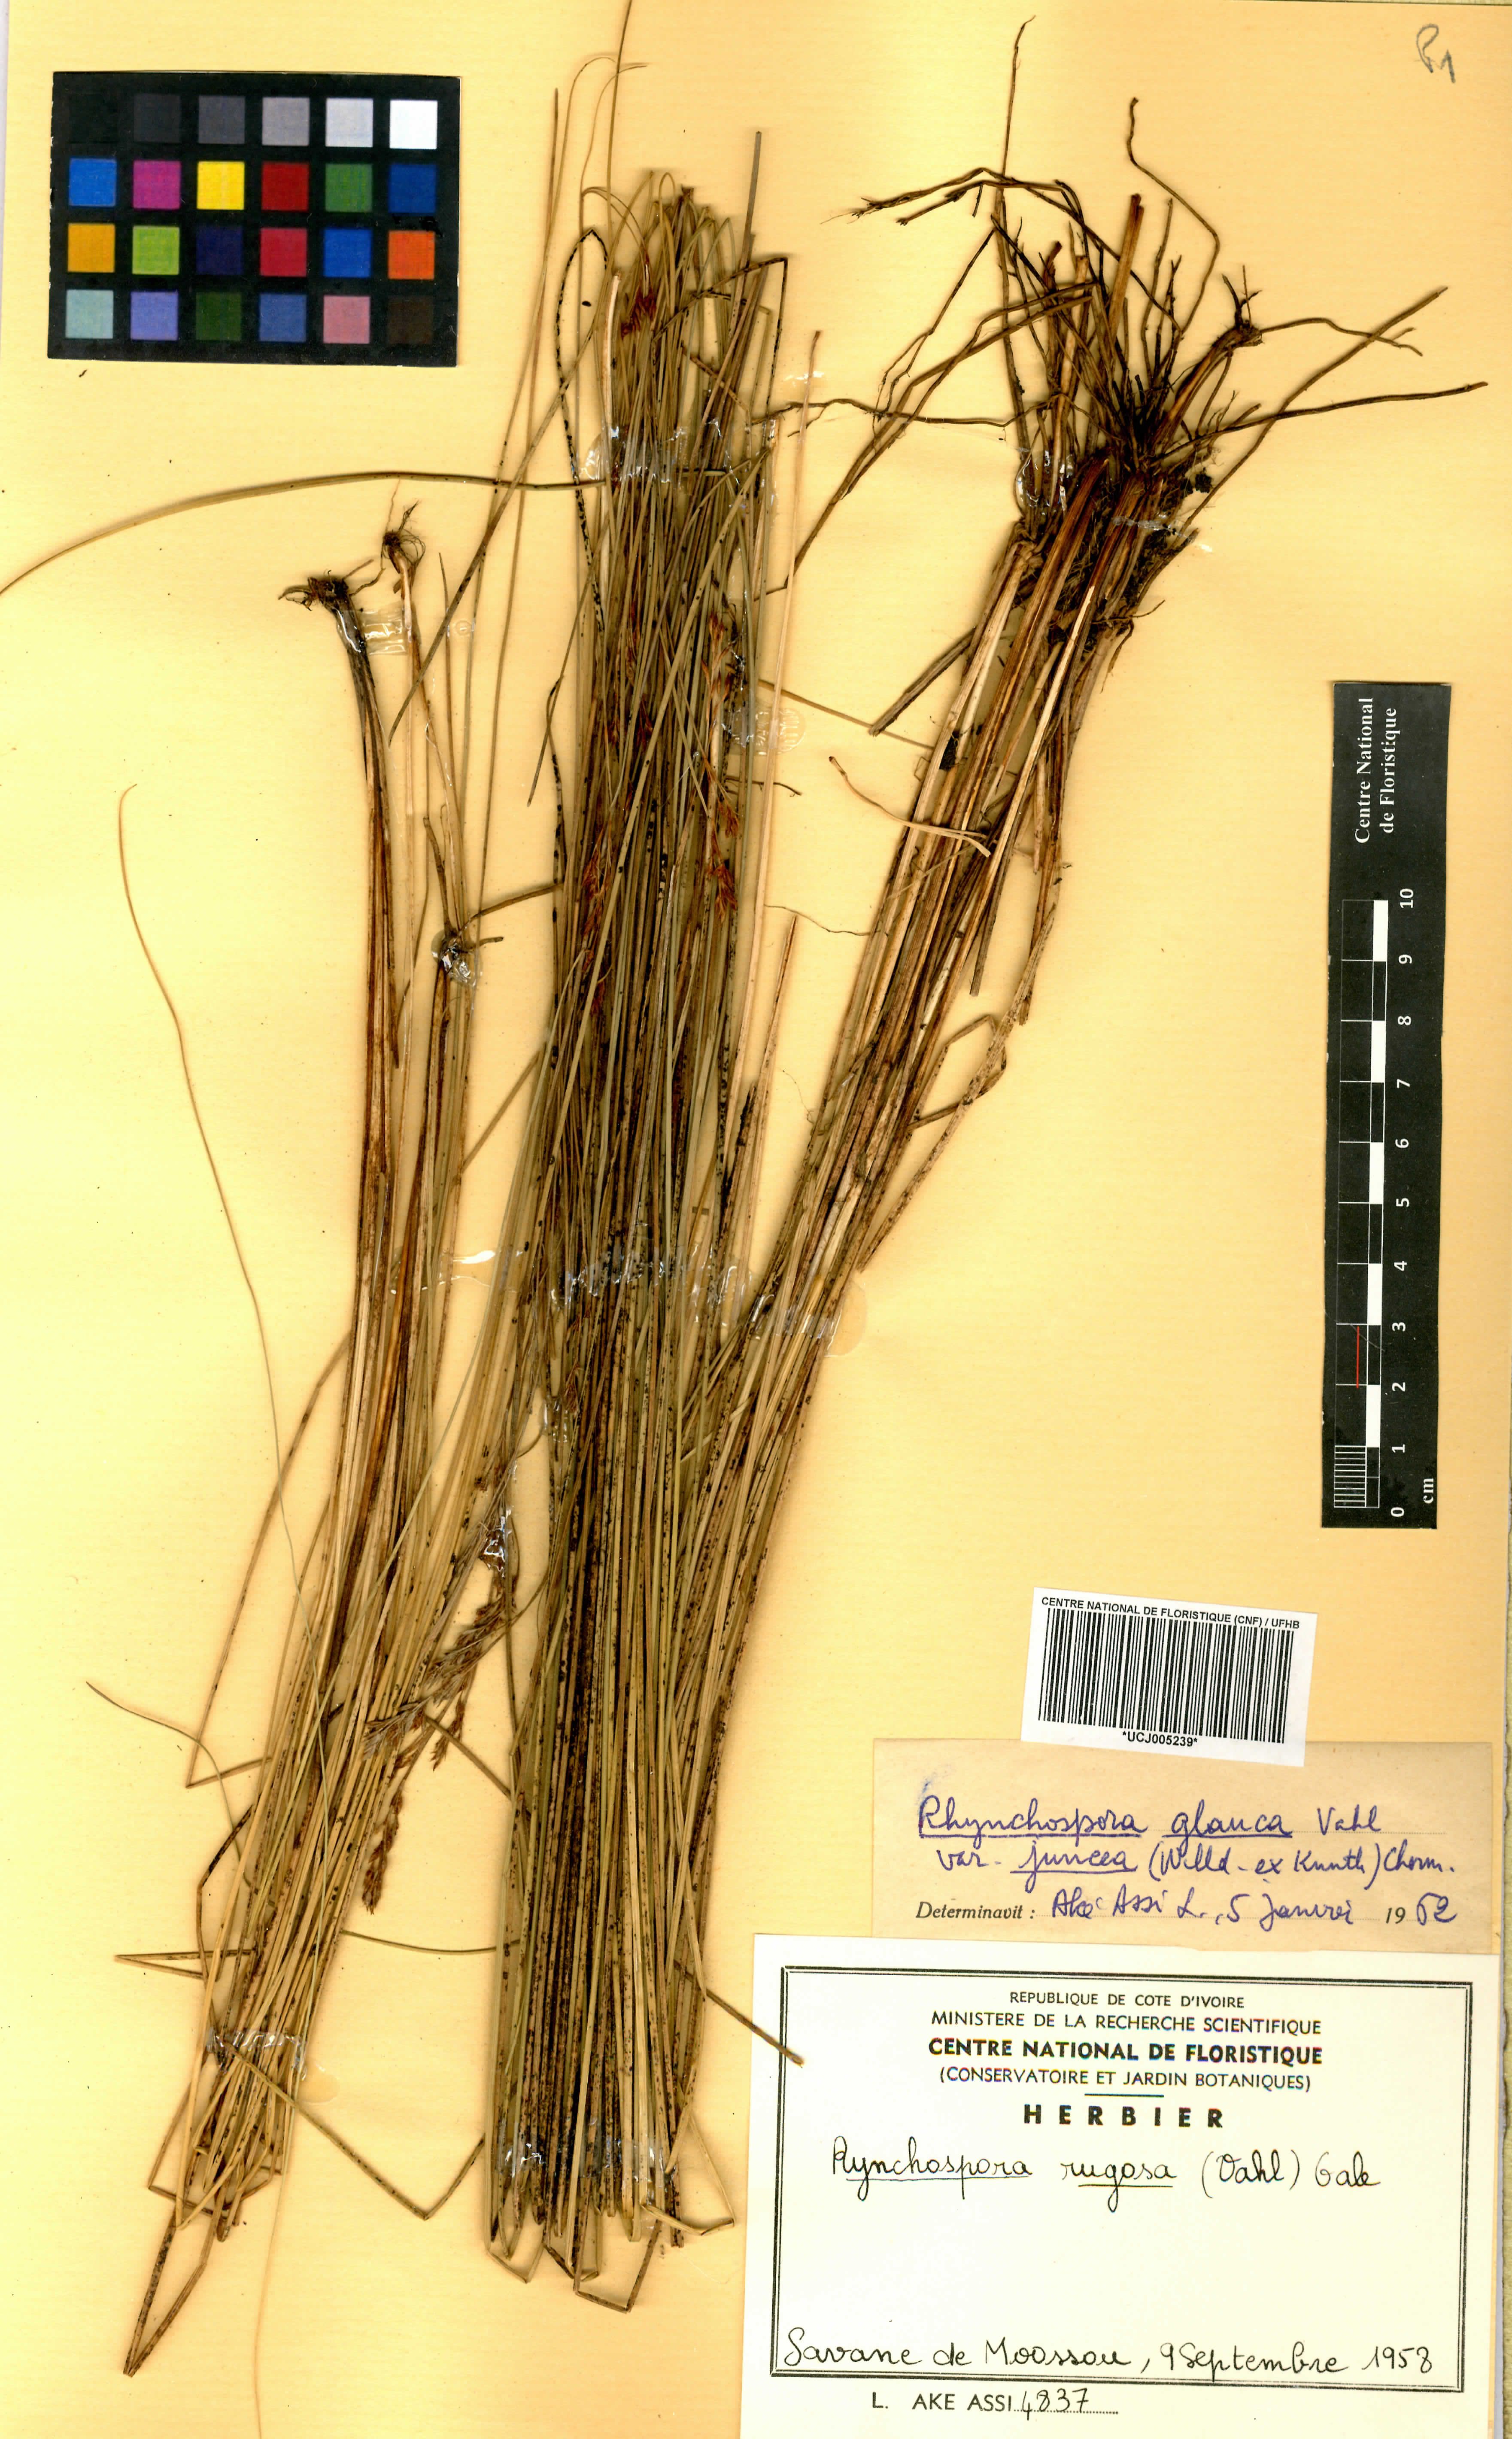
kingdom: Plantae
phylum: Tracheophyta
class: Liliopsida
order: Poales
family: Cyperaceae
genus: Rhynchospora
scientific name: Rhynchospora rugosa
